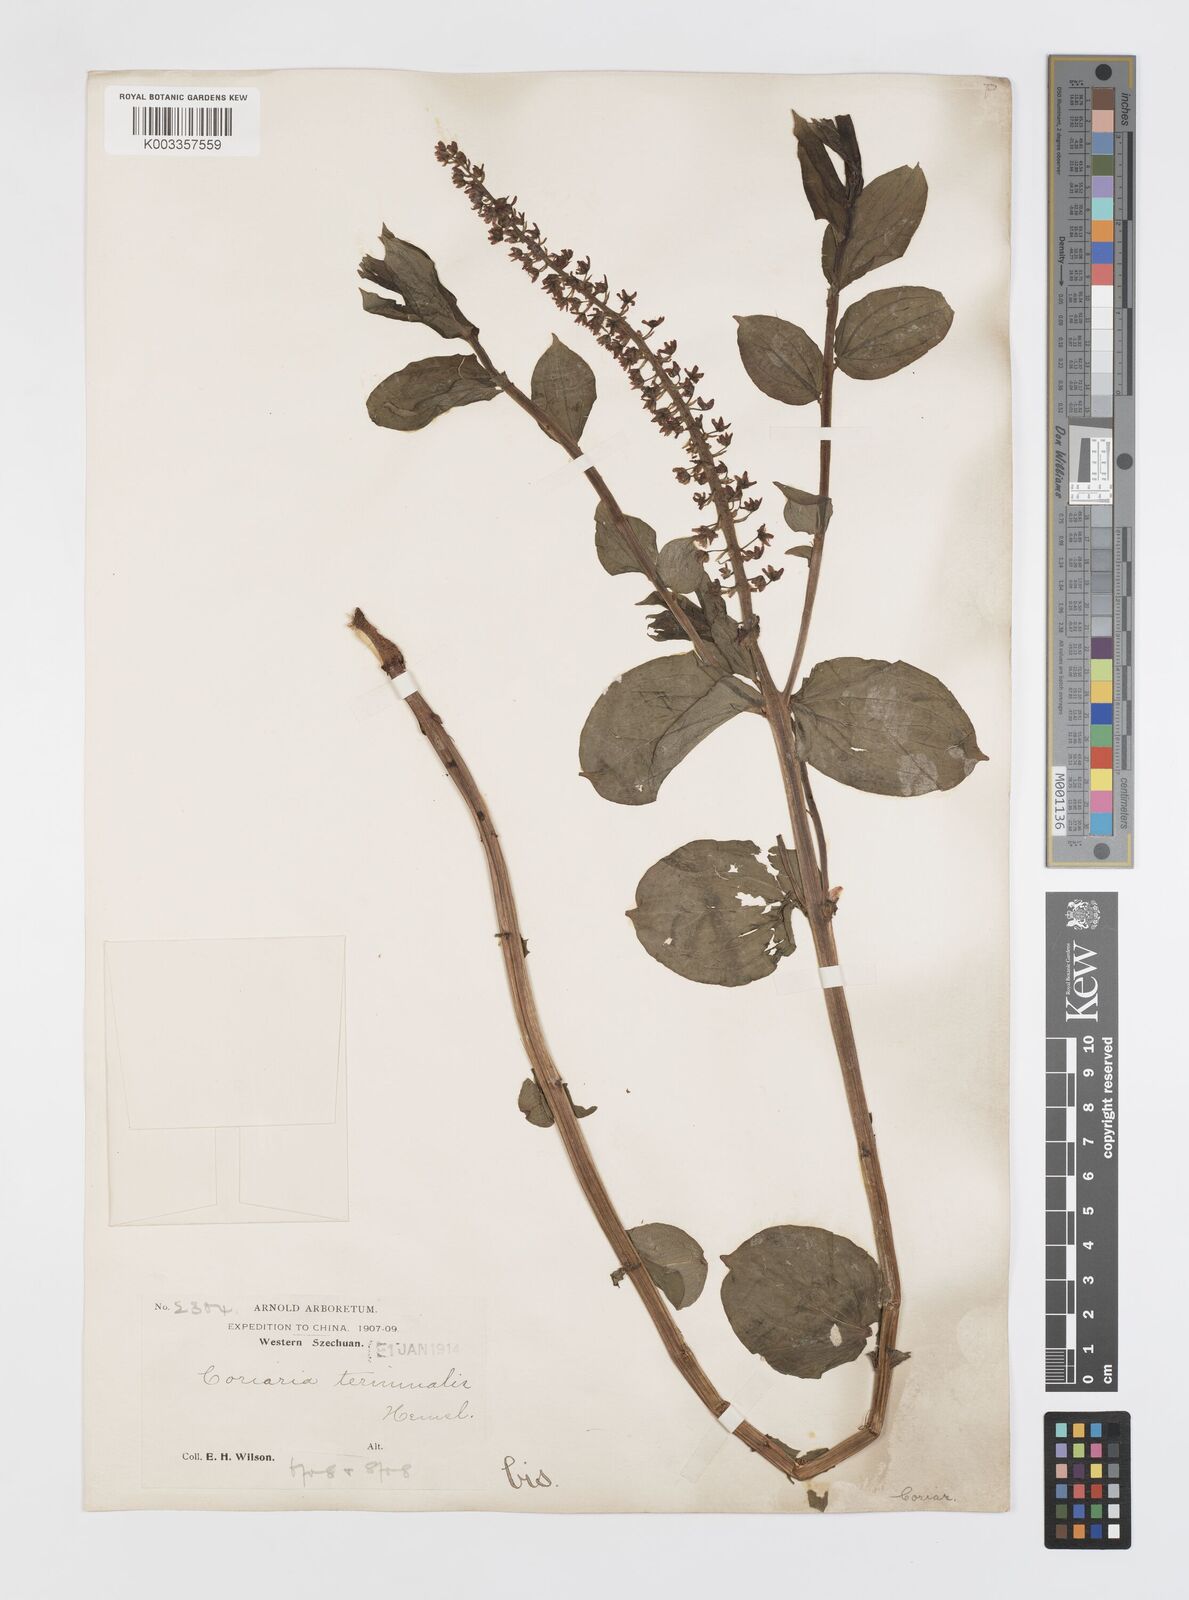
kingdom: Plantae
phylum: Tracheophyta
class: Magnoliopsida
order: Cucurbitales
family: Coriariaceae
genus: Coriaria
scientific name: Coriaria terminalis
